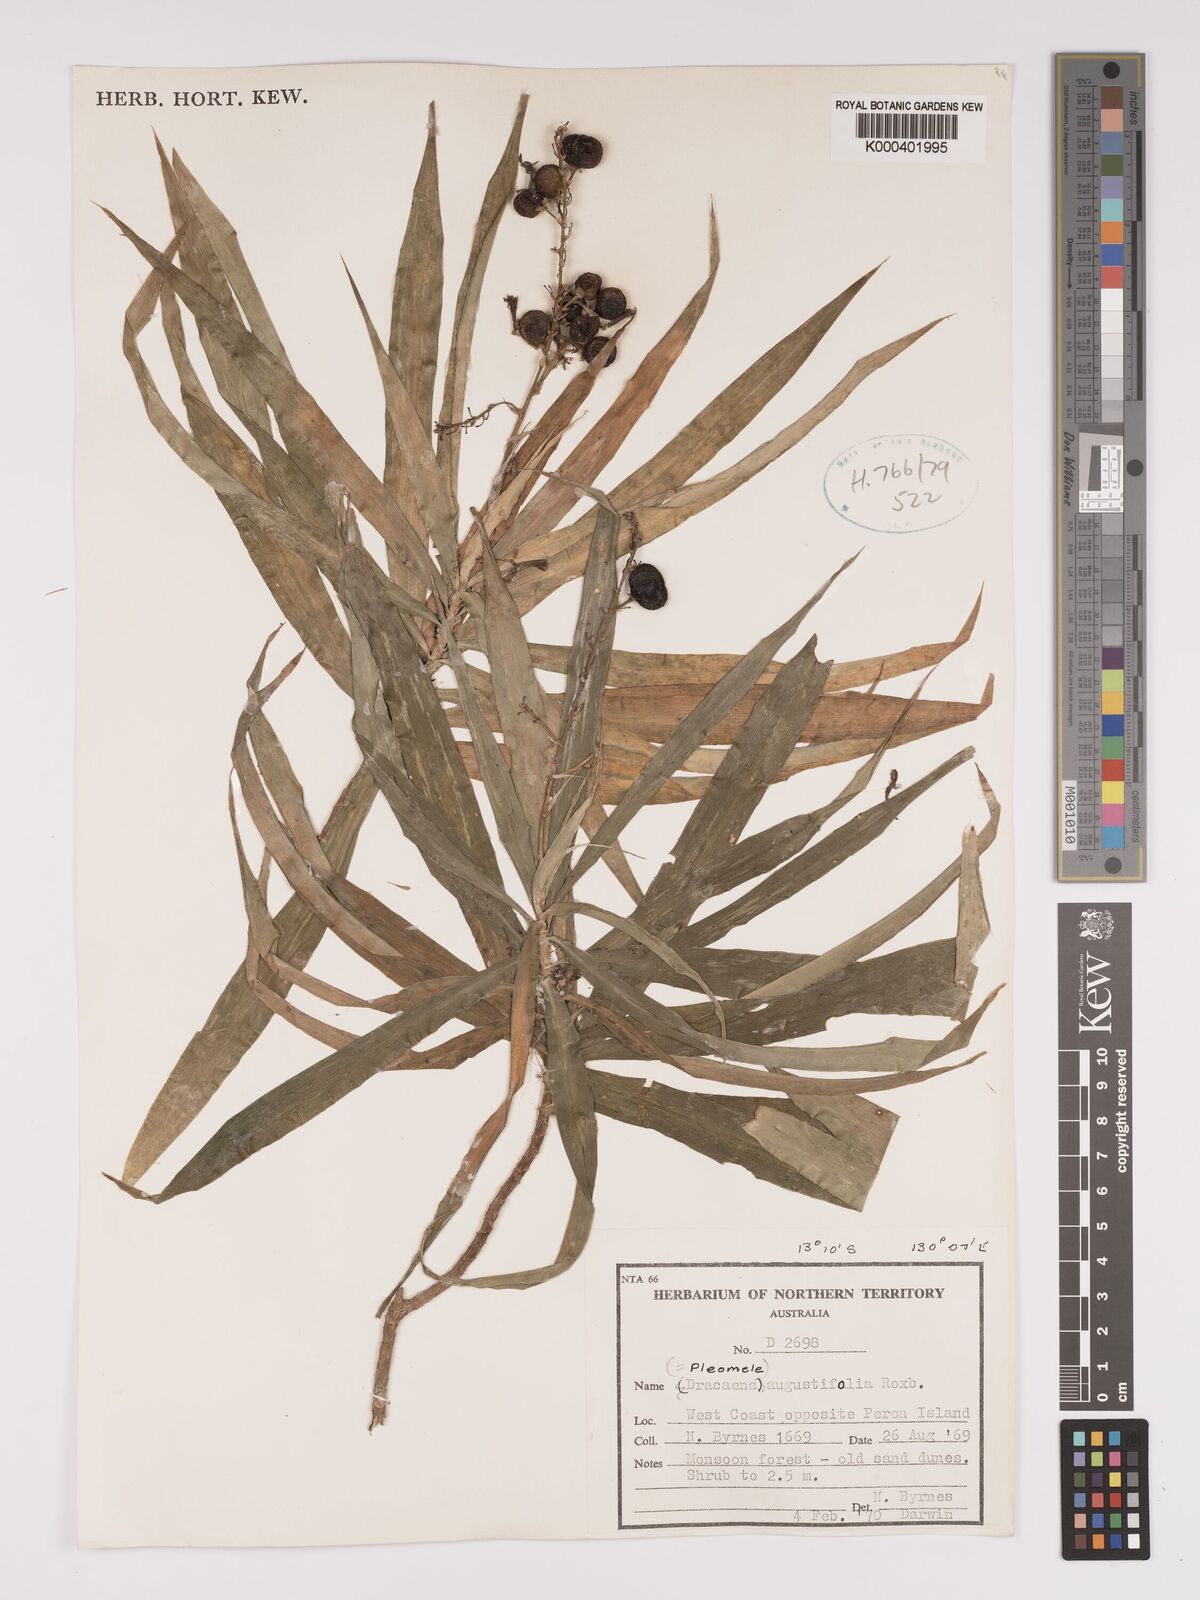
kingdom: Plantae
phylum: Tracheophyta
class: Liliopsida
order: Asparagales
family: Asparagaceae
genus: Dracaena
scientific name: Dracaena angustifolia
